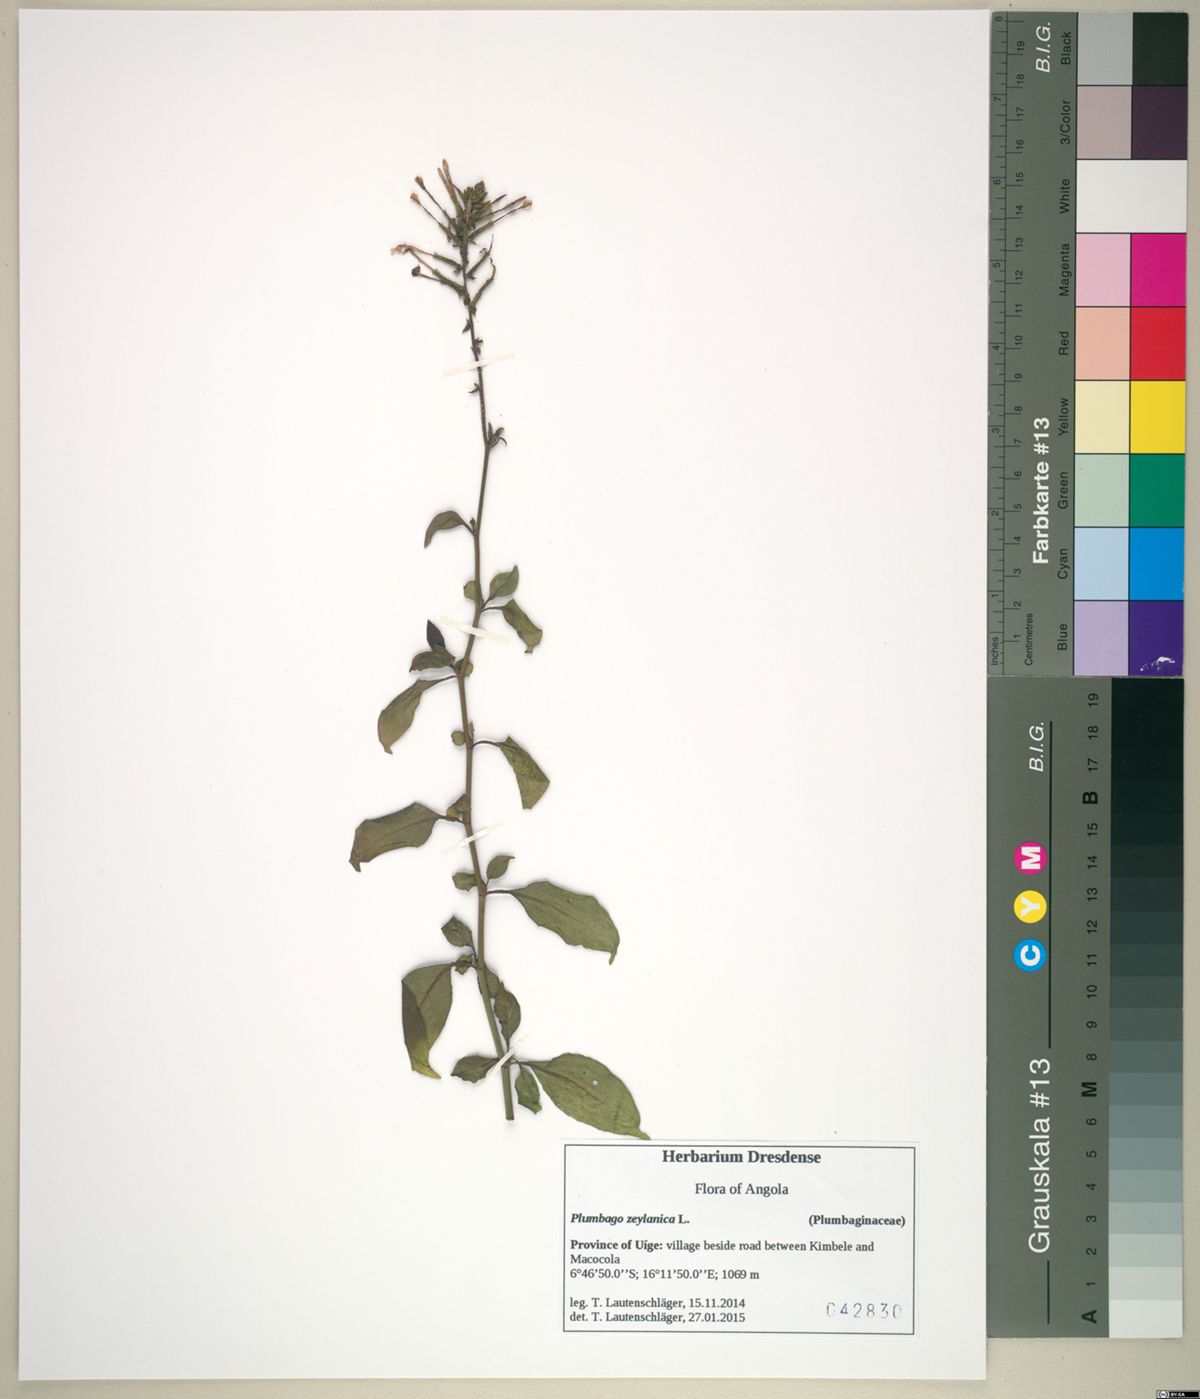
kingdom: Plantae
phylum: Tracheophyta
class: Magnoliopsida
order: Caryophyllales
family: Plumbaginaceae
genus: Plumbago
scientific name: Plumbago zeylanica
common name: Doctorbush
